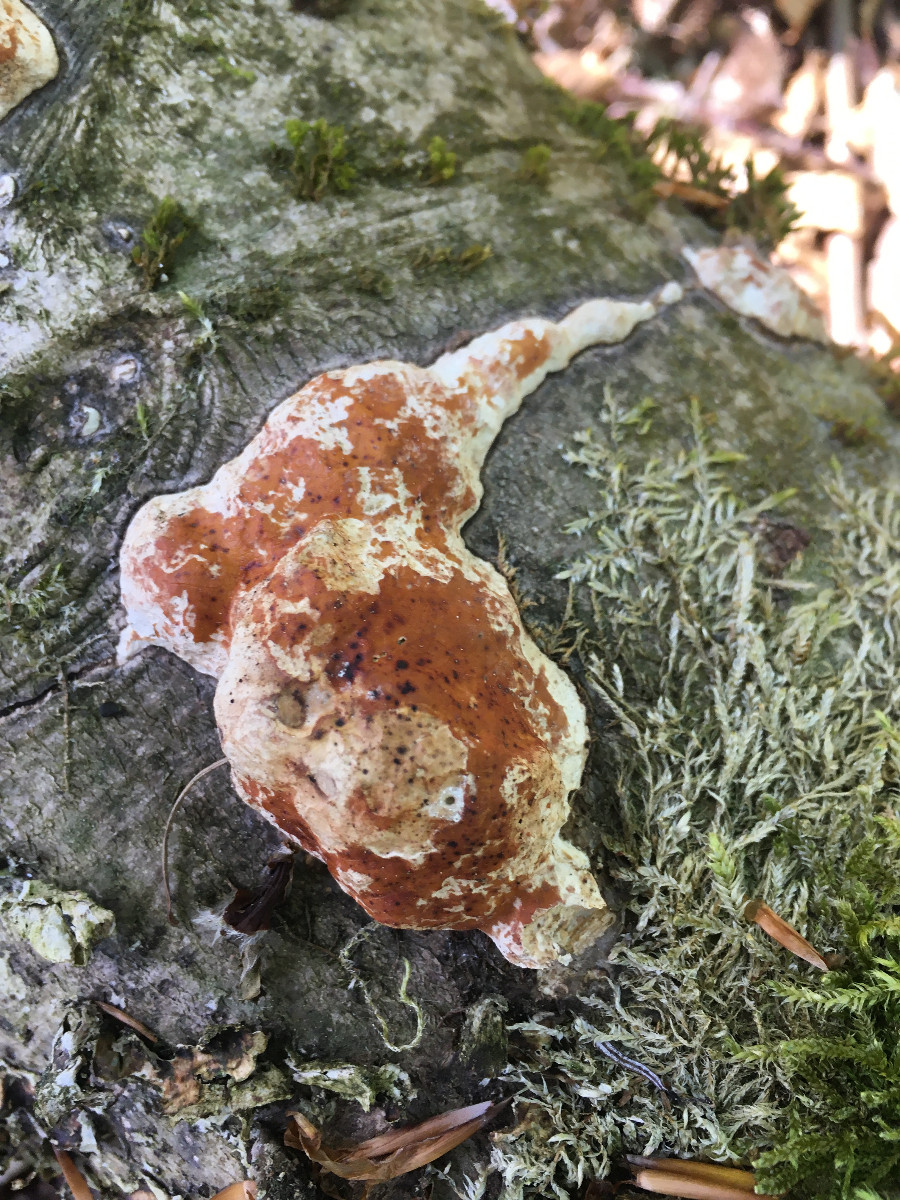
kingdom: Fungi
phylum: Basidiomycota
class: Agaricomycetes
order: Polyporales
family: Fomitopsidaceae
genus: Fomitopsis
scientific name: Fomitopsis pinicola
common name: randbæltet hovporesvamp
